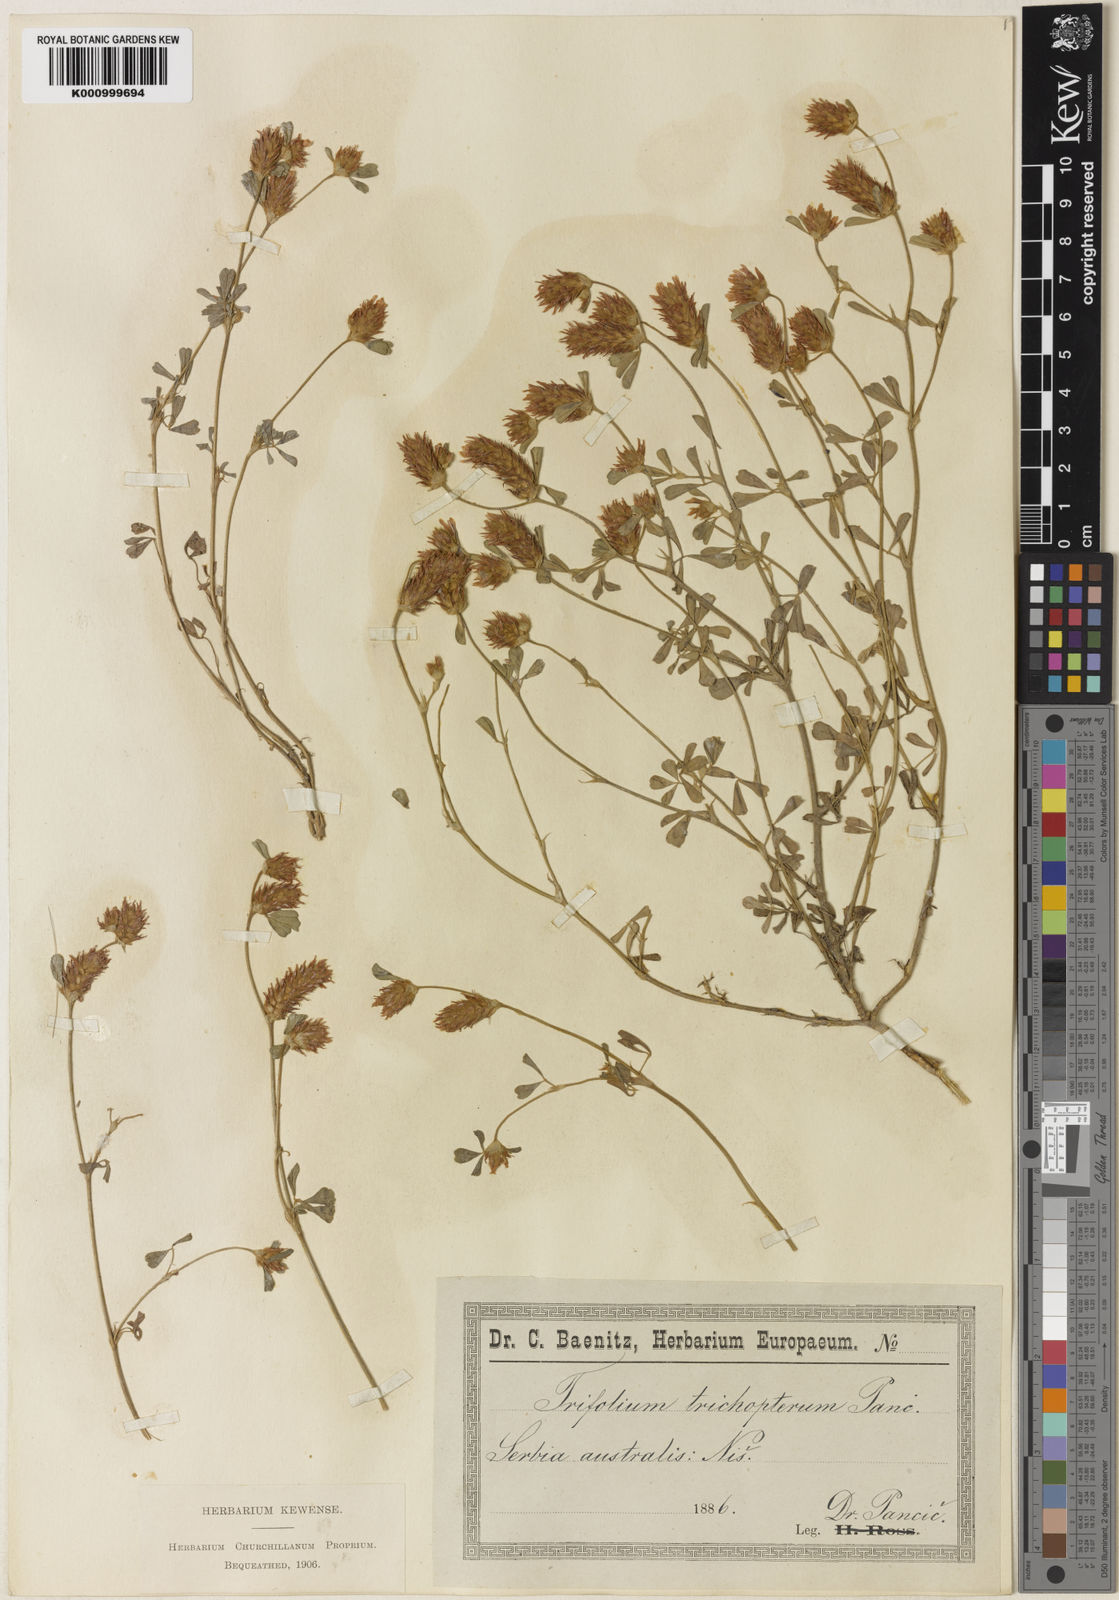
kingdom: Plantae
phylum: Tracheophyta
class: Magnoliopsida
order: Fabales
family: Fabaceae
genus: Trifolium
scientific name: Trifolium trichopterum
